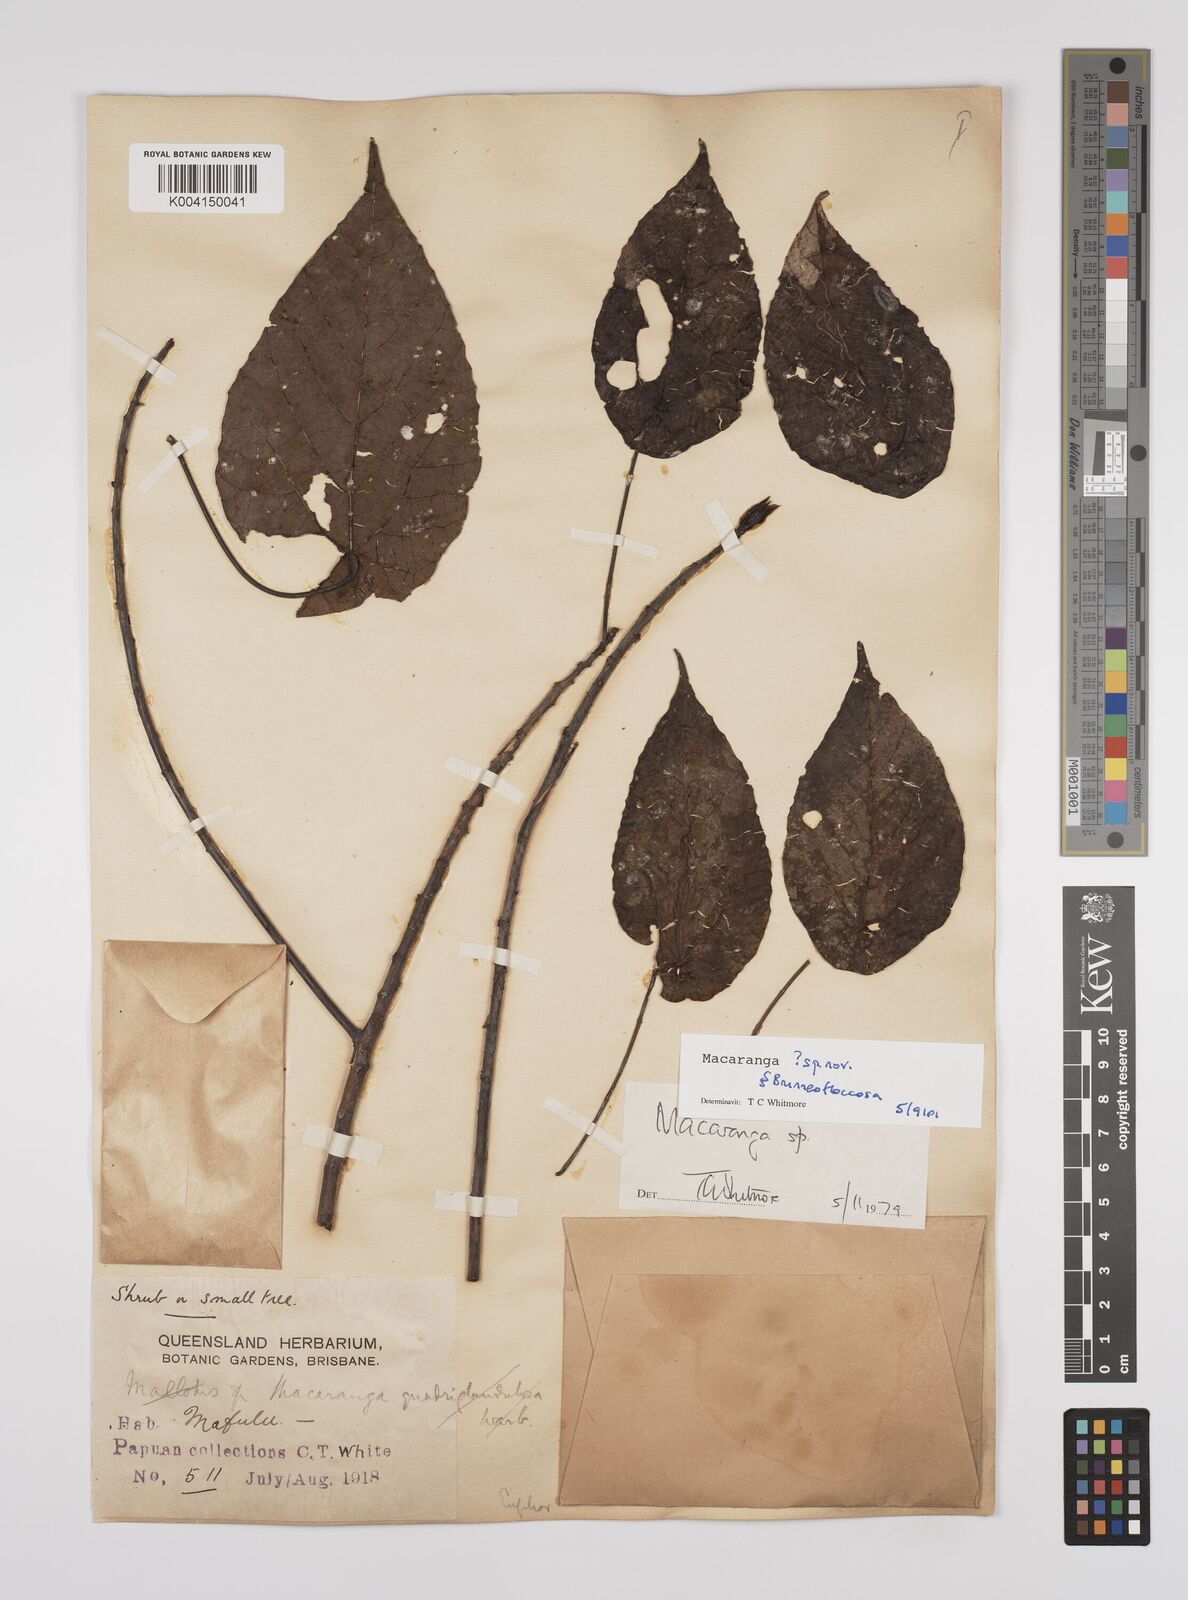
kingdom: Plantae
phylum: Tracheophyta
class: Magnoliopsida
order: Malpighiales
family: Euphorbiaceae
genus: Macaranga
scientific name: Macaranga
